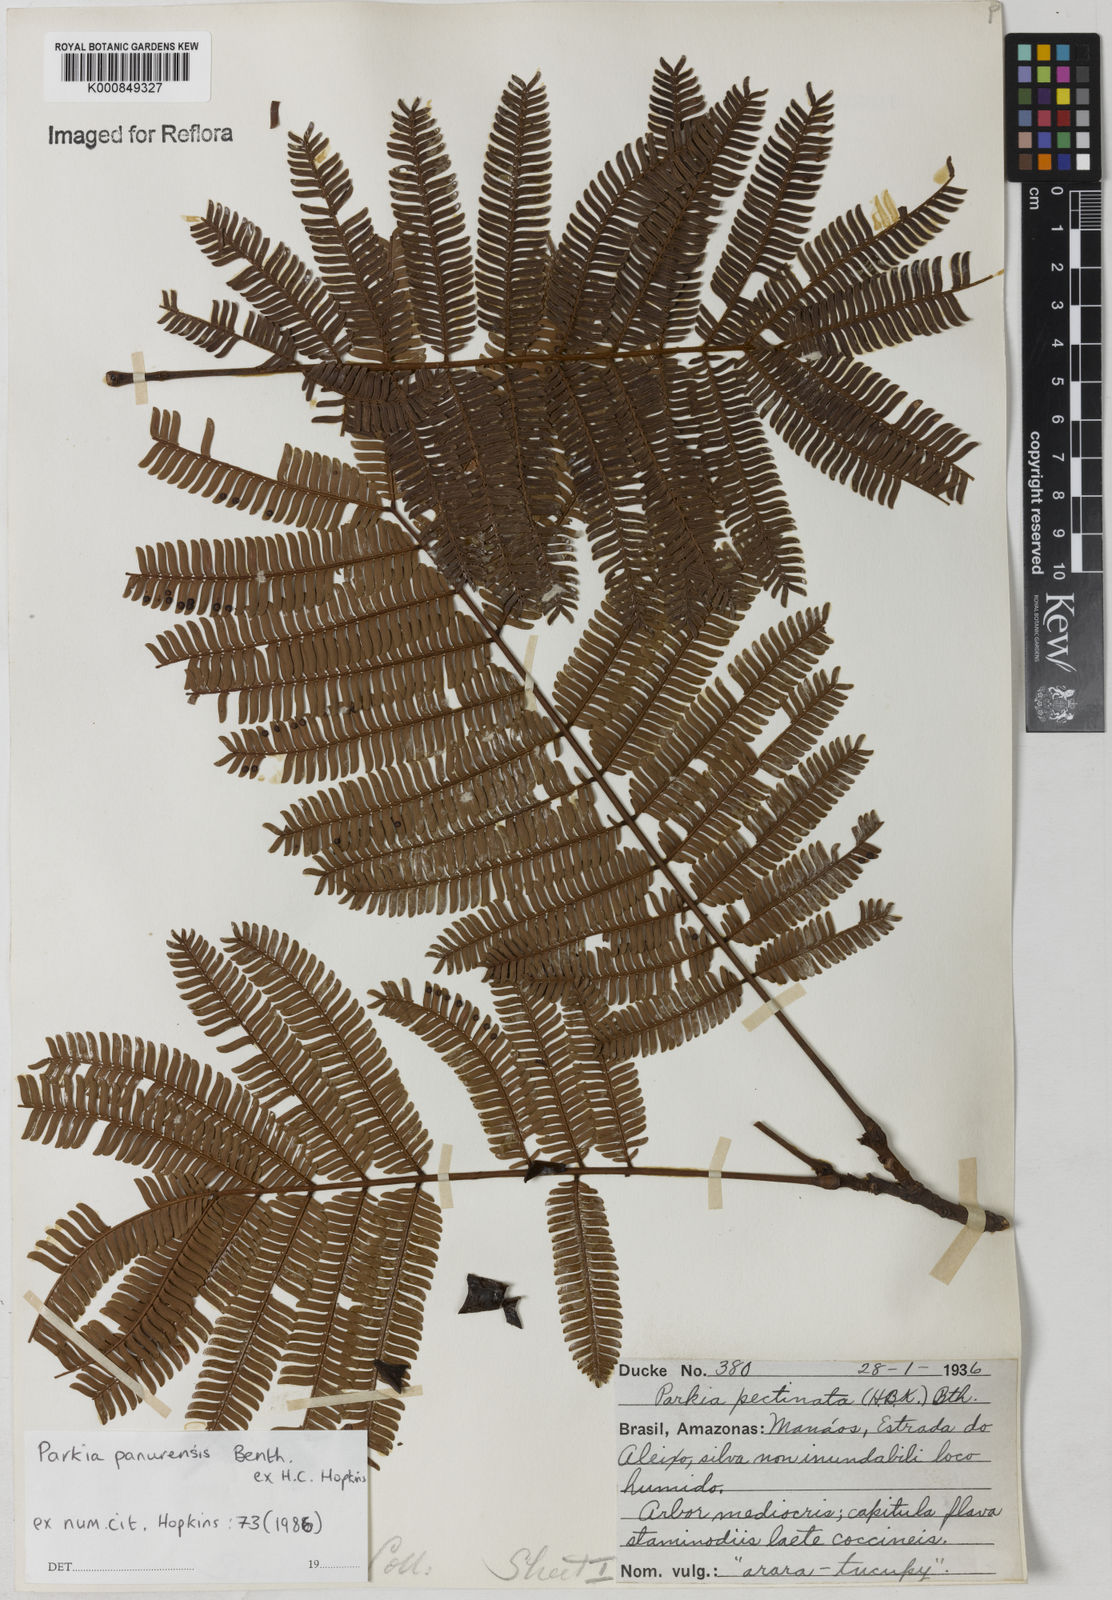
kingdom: Plantae
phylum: Tracheophyta
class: Magnoliopsida
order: Fabales
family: Fabaceae
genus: Parkia
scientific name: Parkia pectinata
